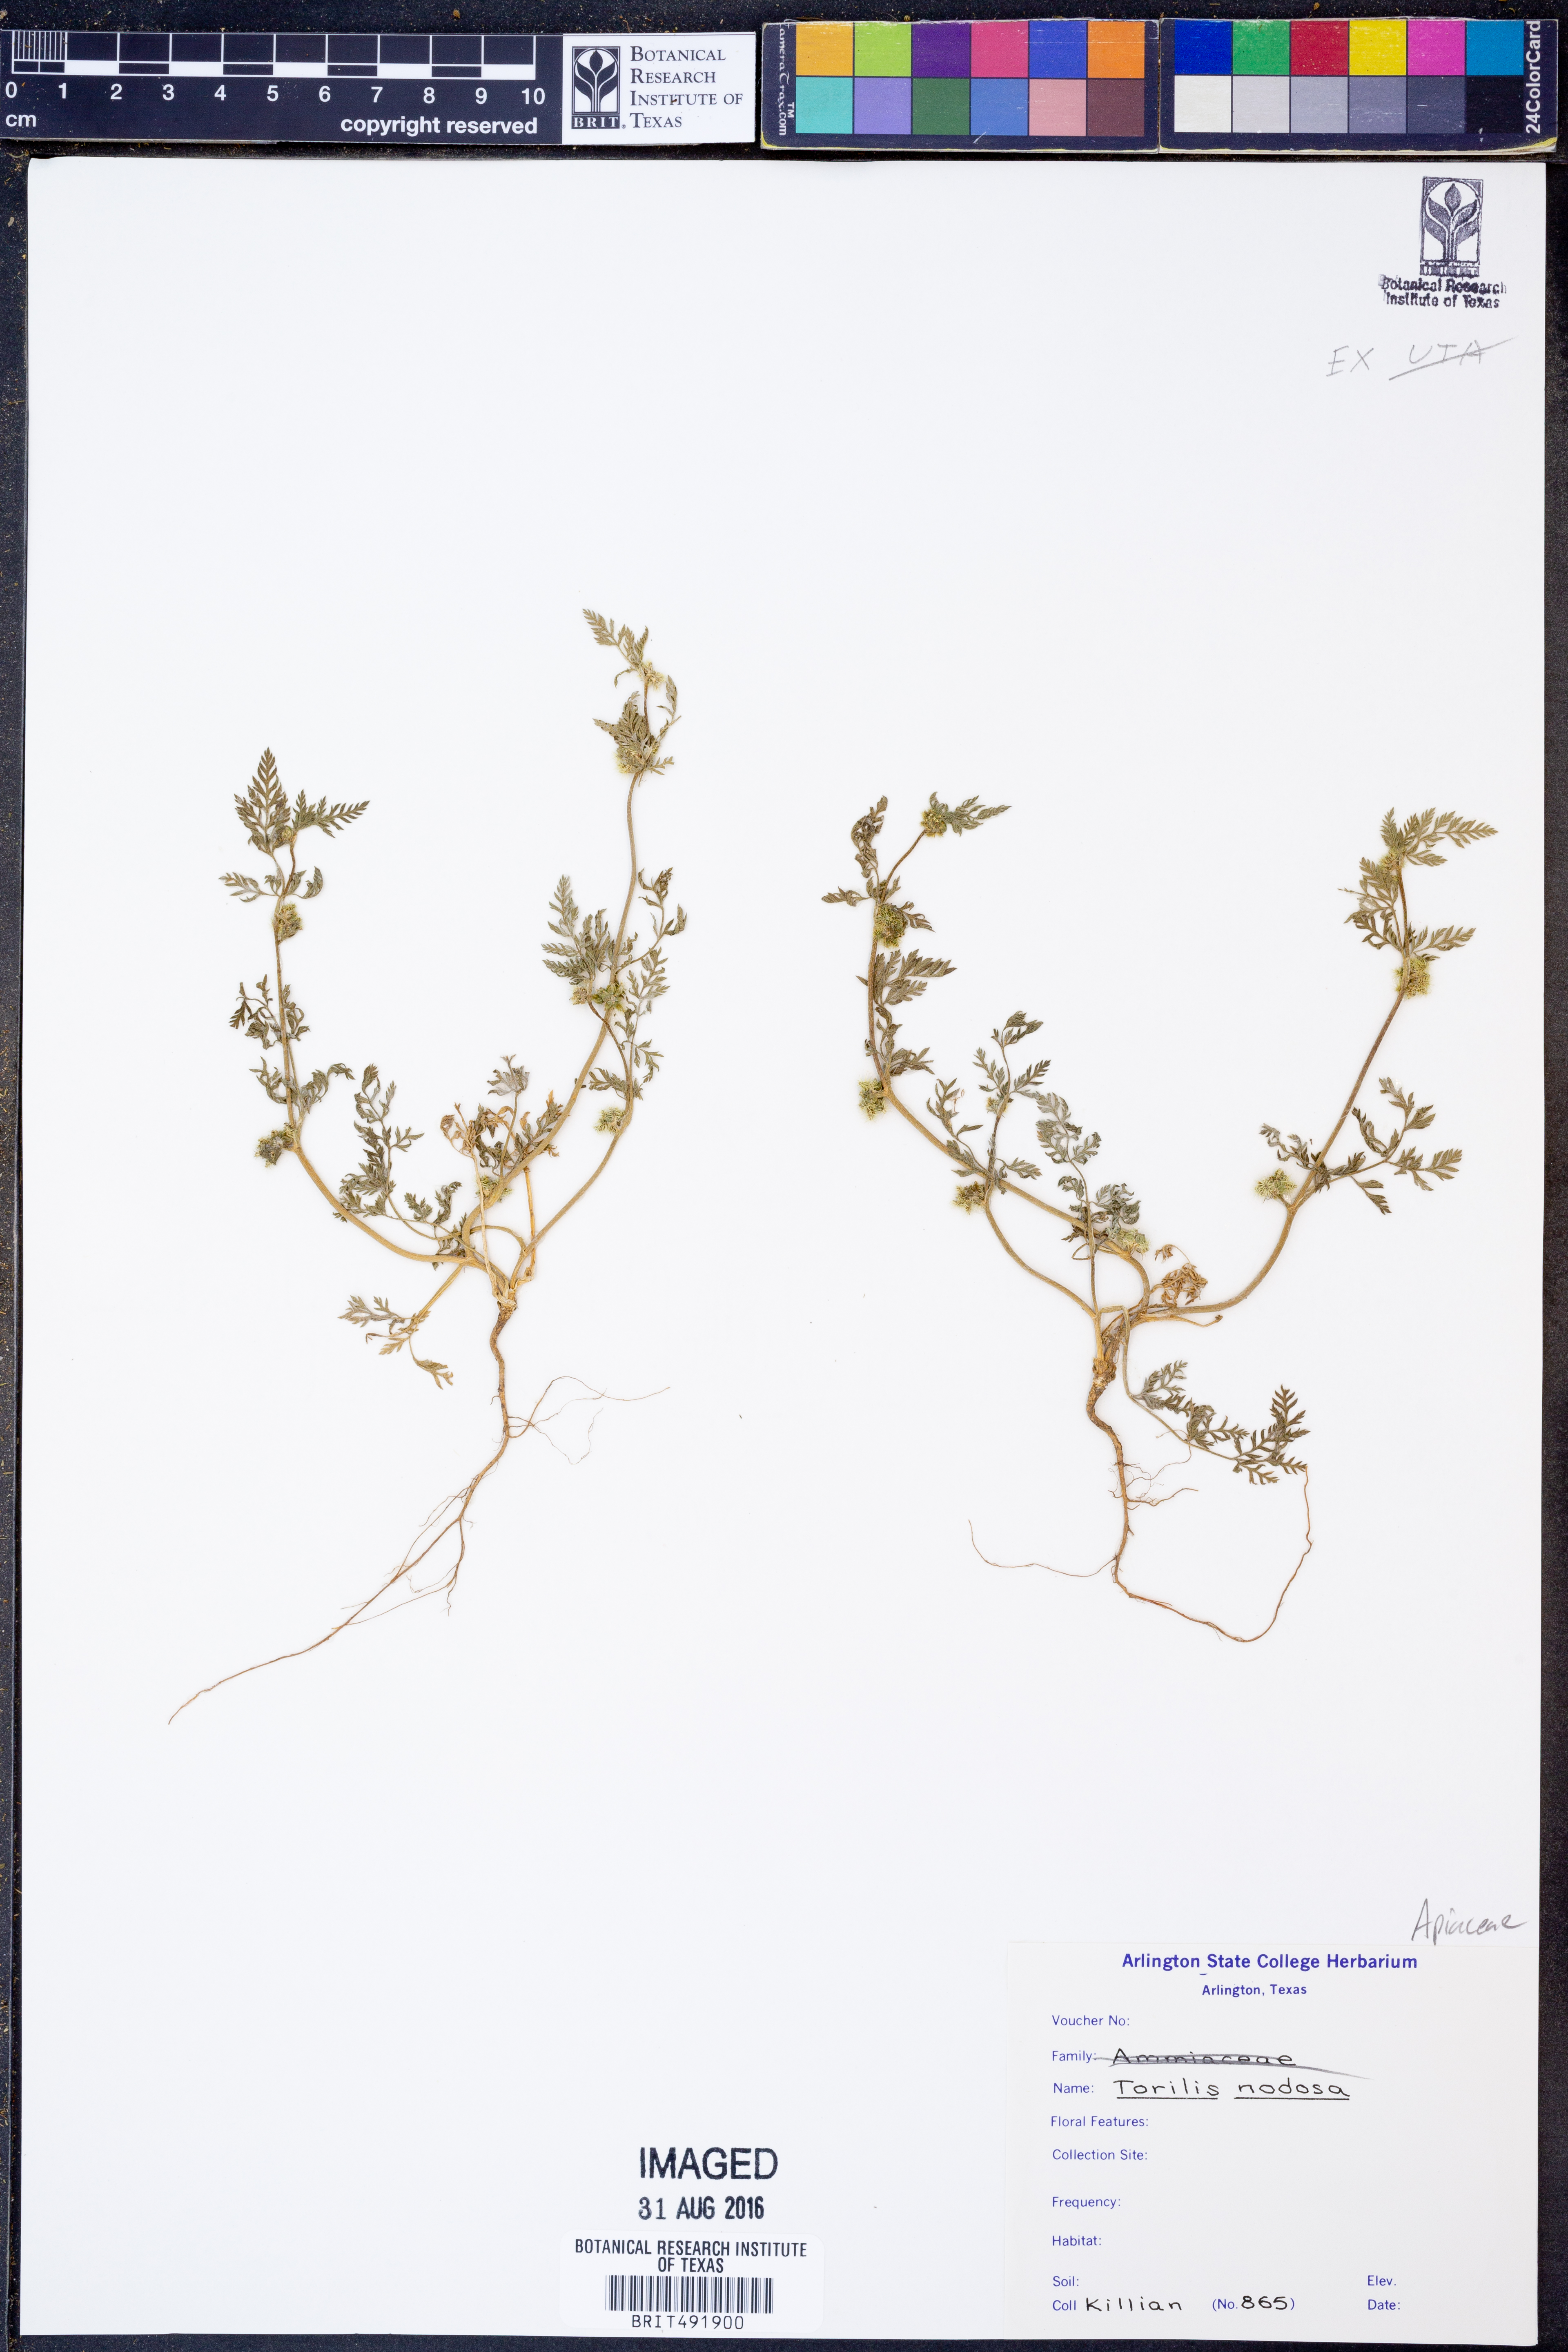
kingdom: Plantae
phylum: Tracheophyta
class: Magnoliopsida
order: Apiales
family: Apiaceae
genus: Torilis
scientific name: Torilis nodosa
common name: Knotted hedge-parsley
